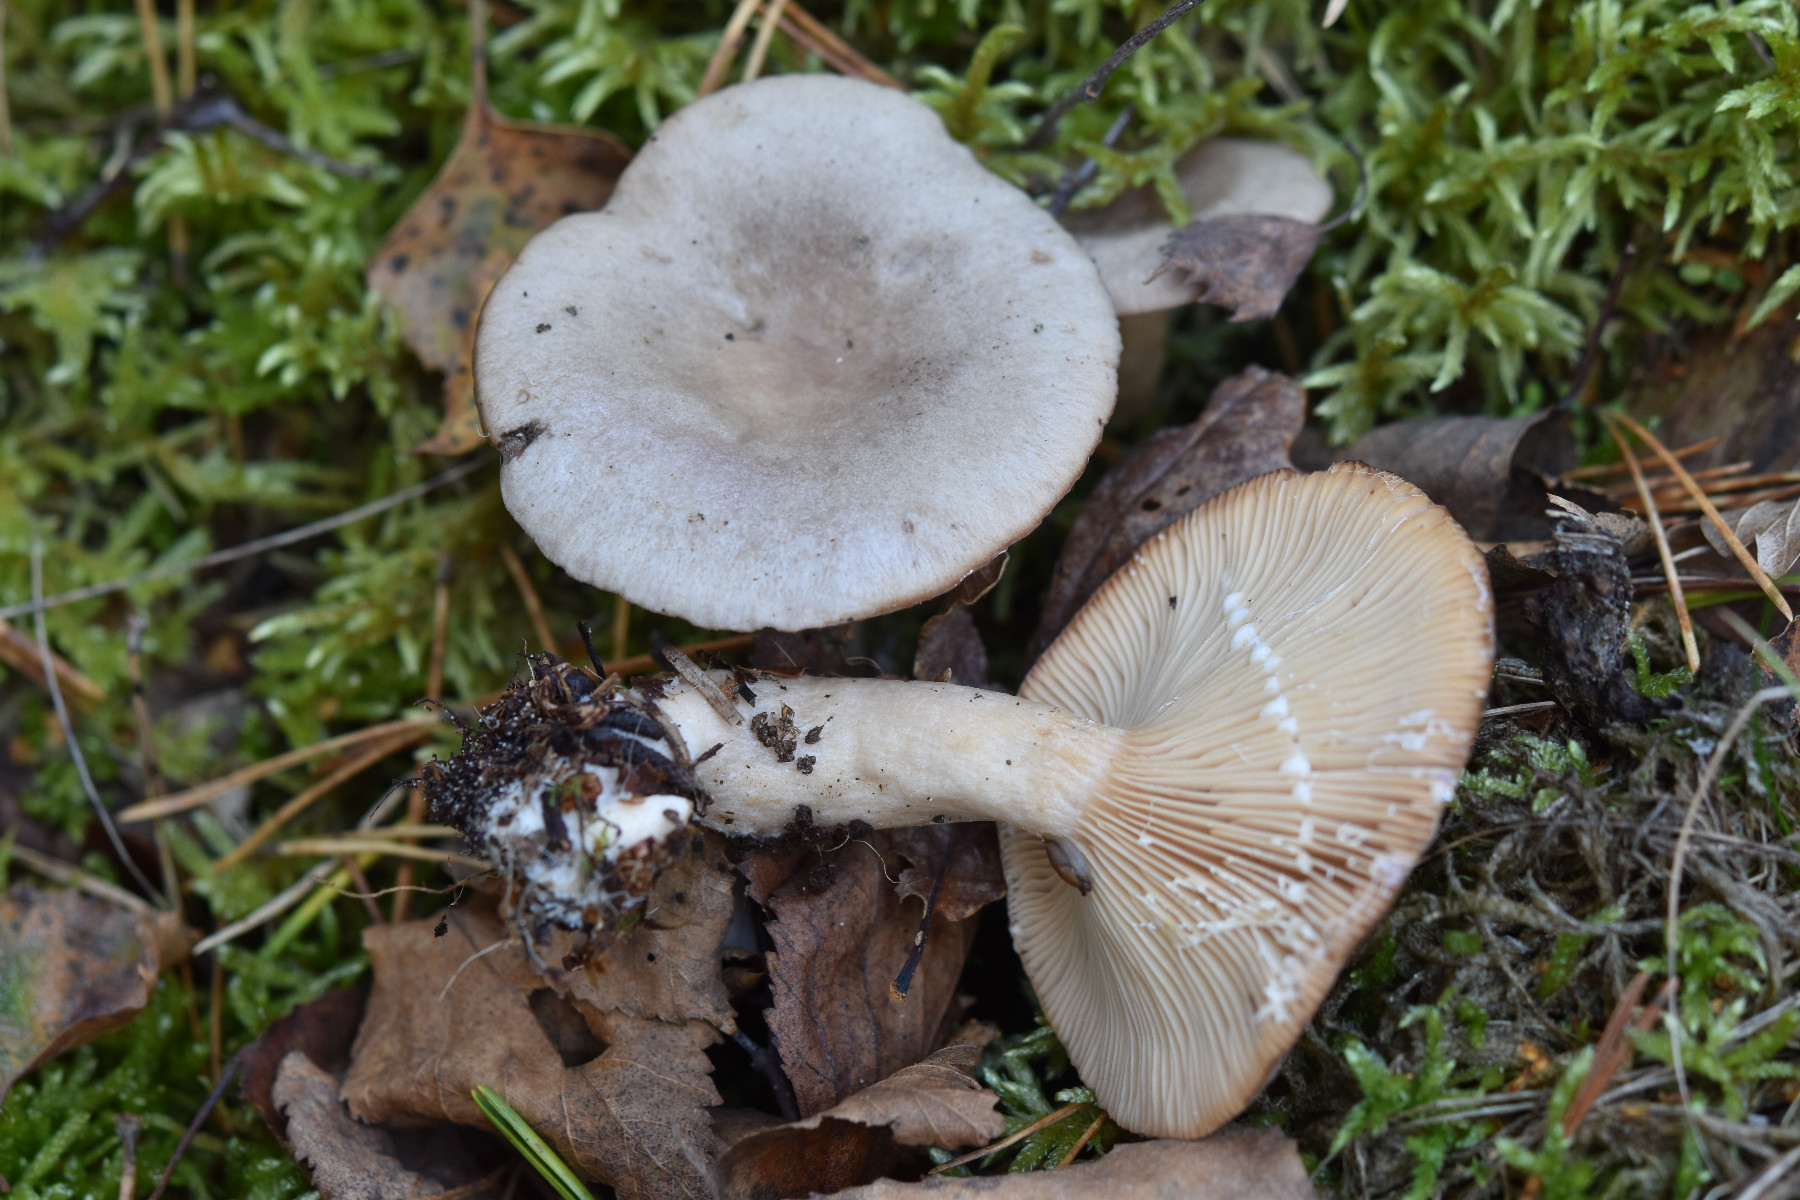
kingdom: Fungi
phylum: Basidiomycota
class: Agaricomycetes
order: Russulales
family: Russulaceae
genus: Lactarius
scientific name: Lactarius vietus
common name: violetgrå mælkehat
